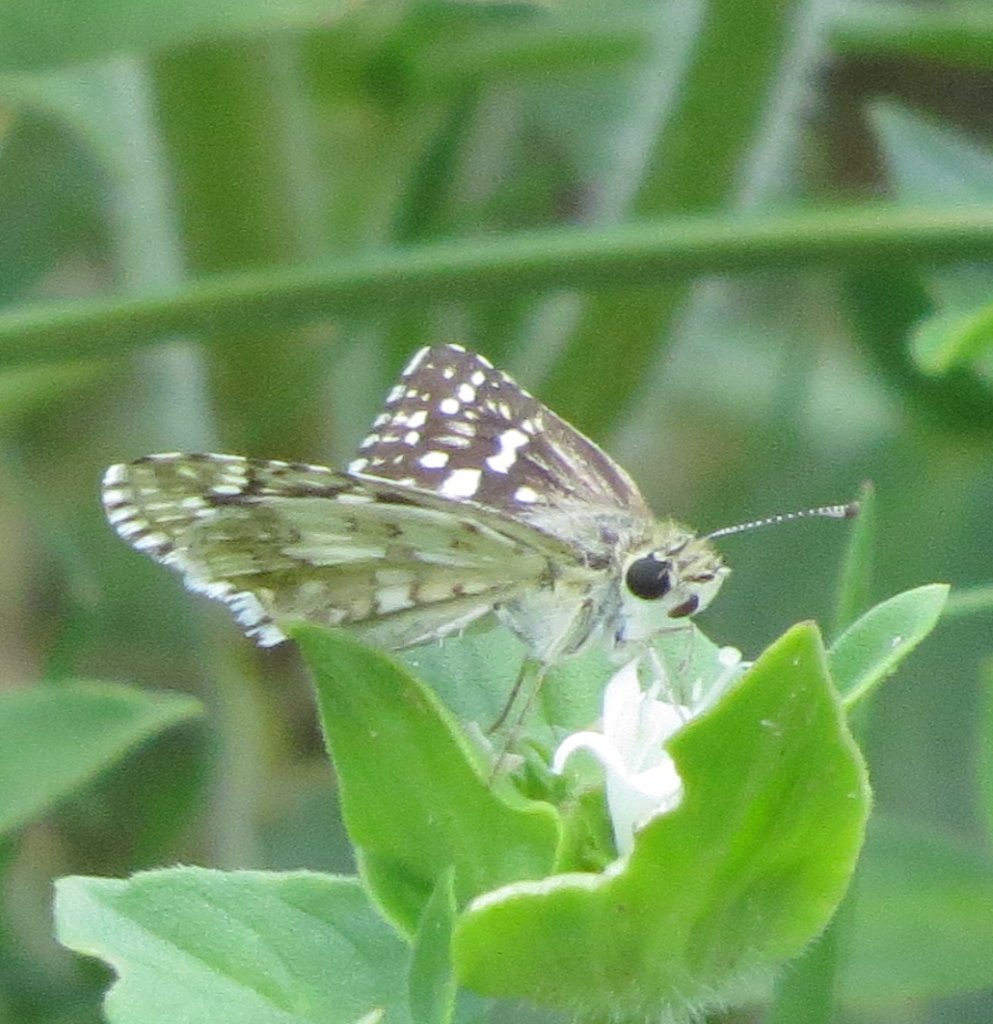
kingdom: Animalia
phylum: Arthropoda
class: Insecta
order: Lepidoptera
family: Hesperiidae
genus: Pyrgus
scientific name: Pyrgus communis
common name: White Checkered-Skipper
